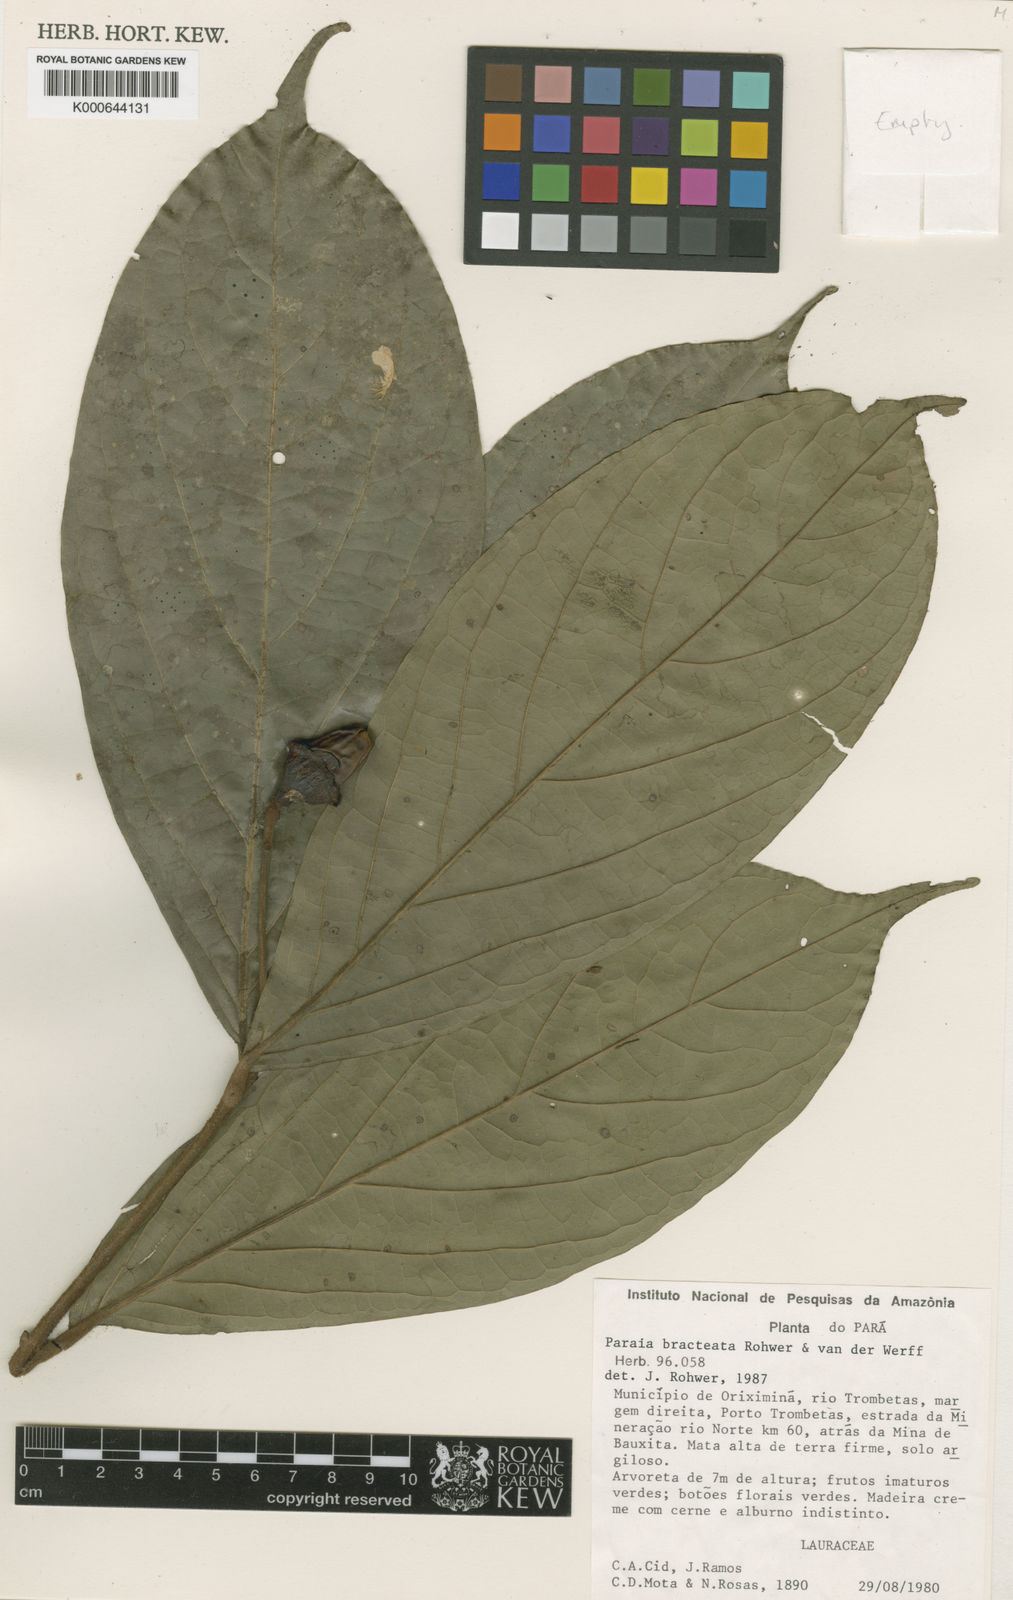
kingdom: Plantae
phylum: Tracheophyta
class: Magnoliopsida
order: Laurales
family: Lauraceae
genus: Paraia
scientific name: Paraia bracteata
